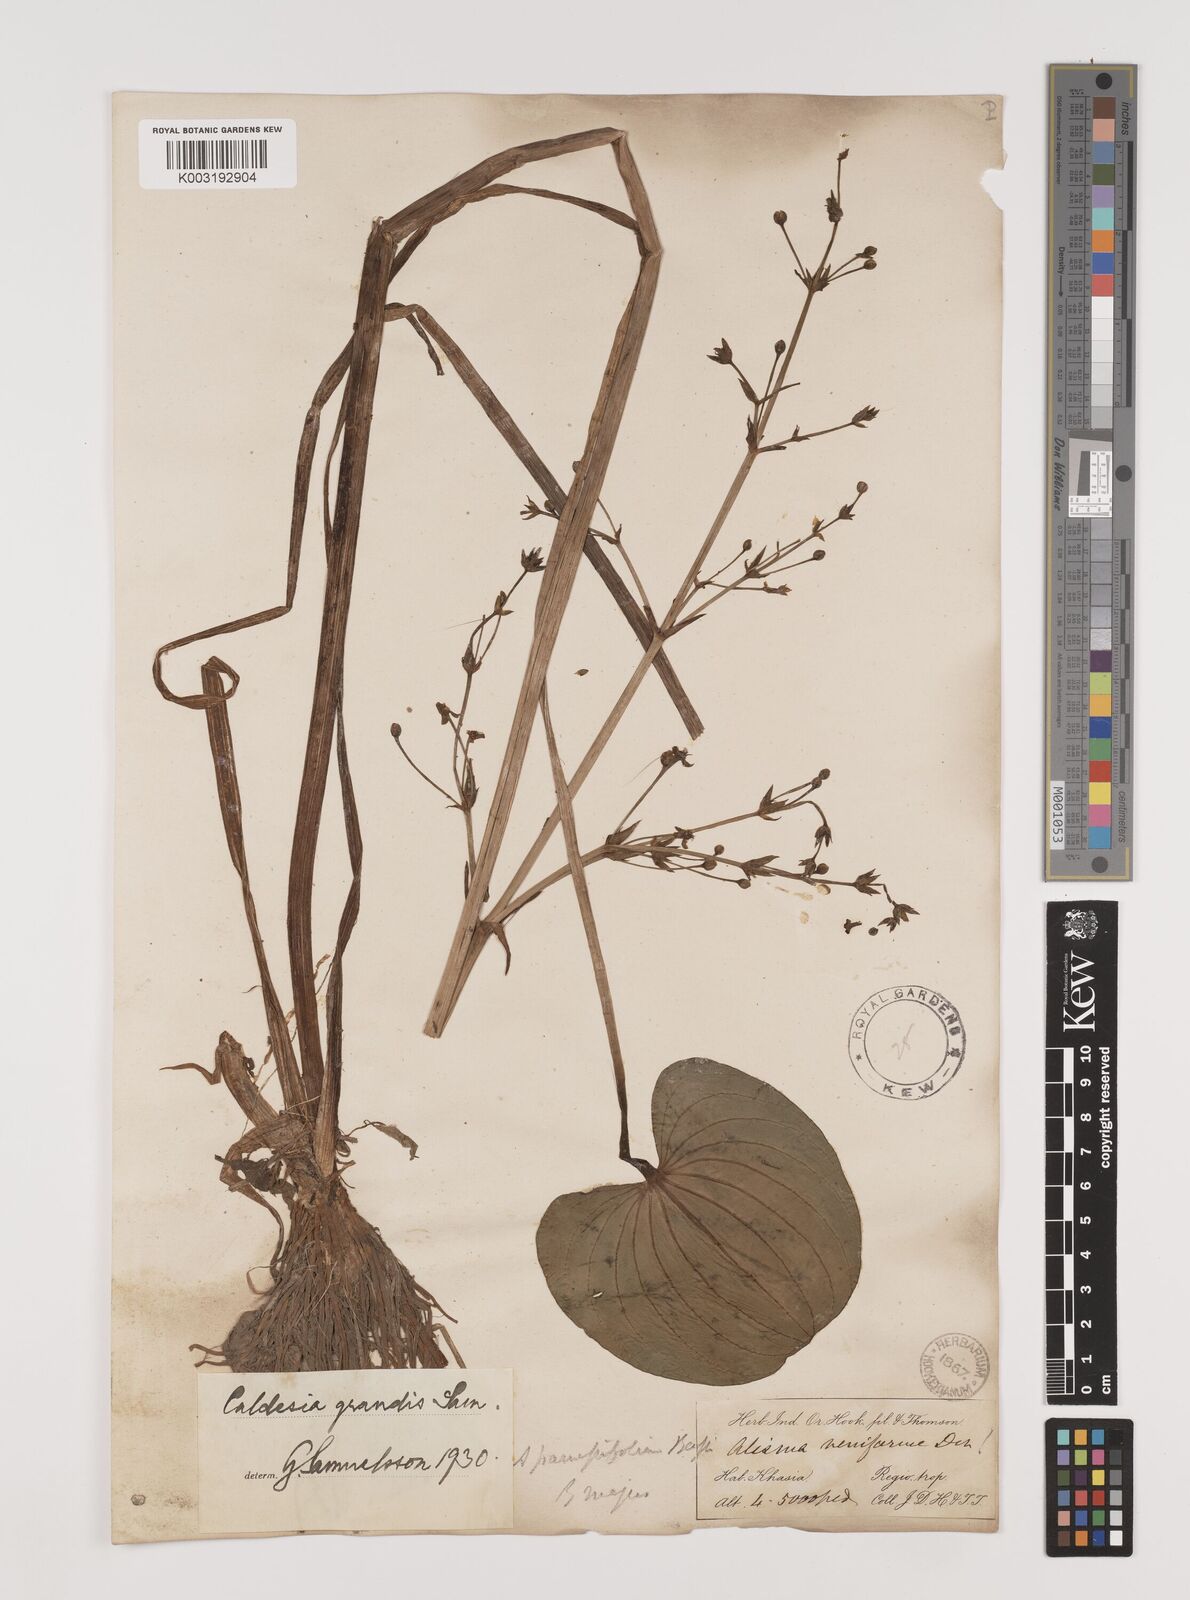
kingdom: Plantae
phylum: Tracheophyta
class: Liliopsida
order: Alismatales
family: Alismataceae
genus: Caldesia
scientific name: Caldesia grandis
